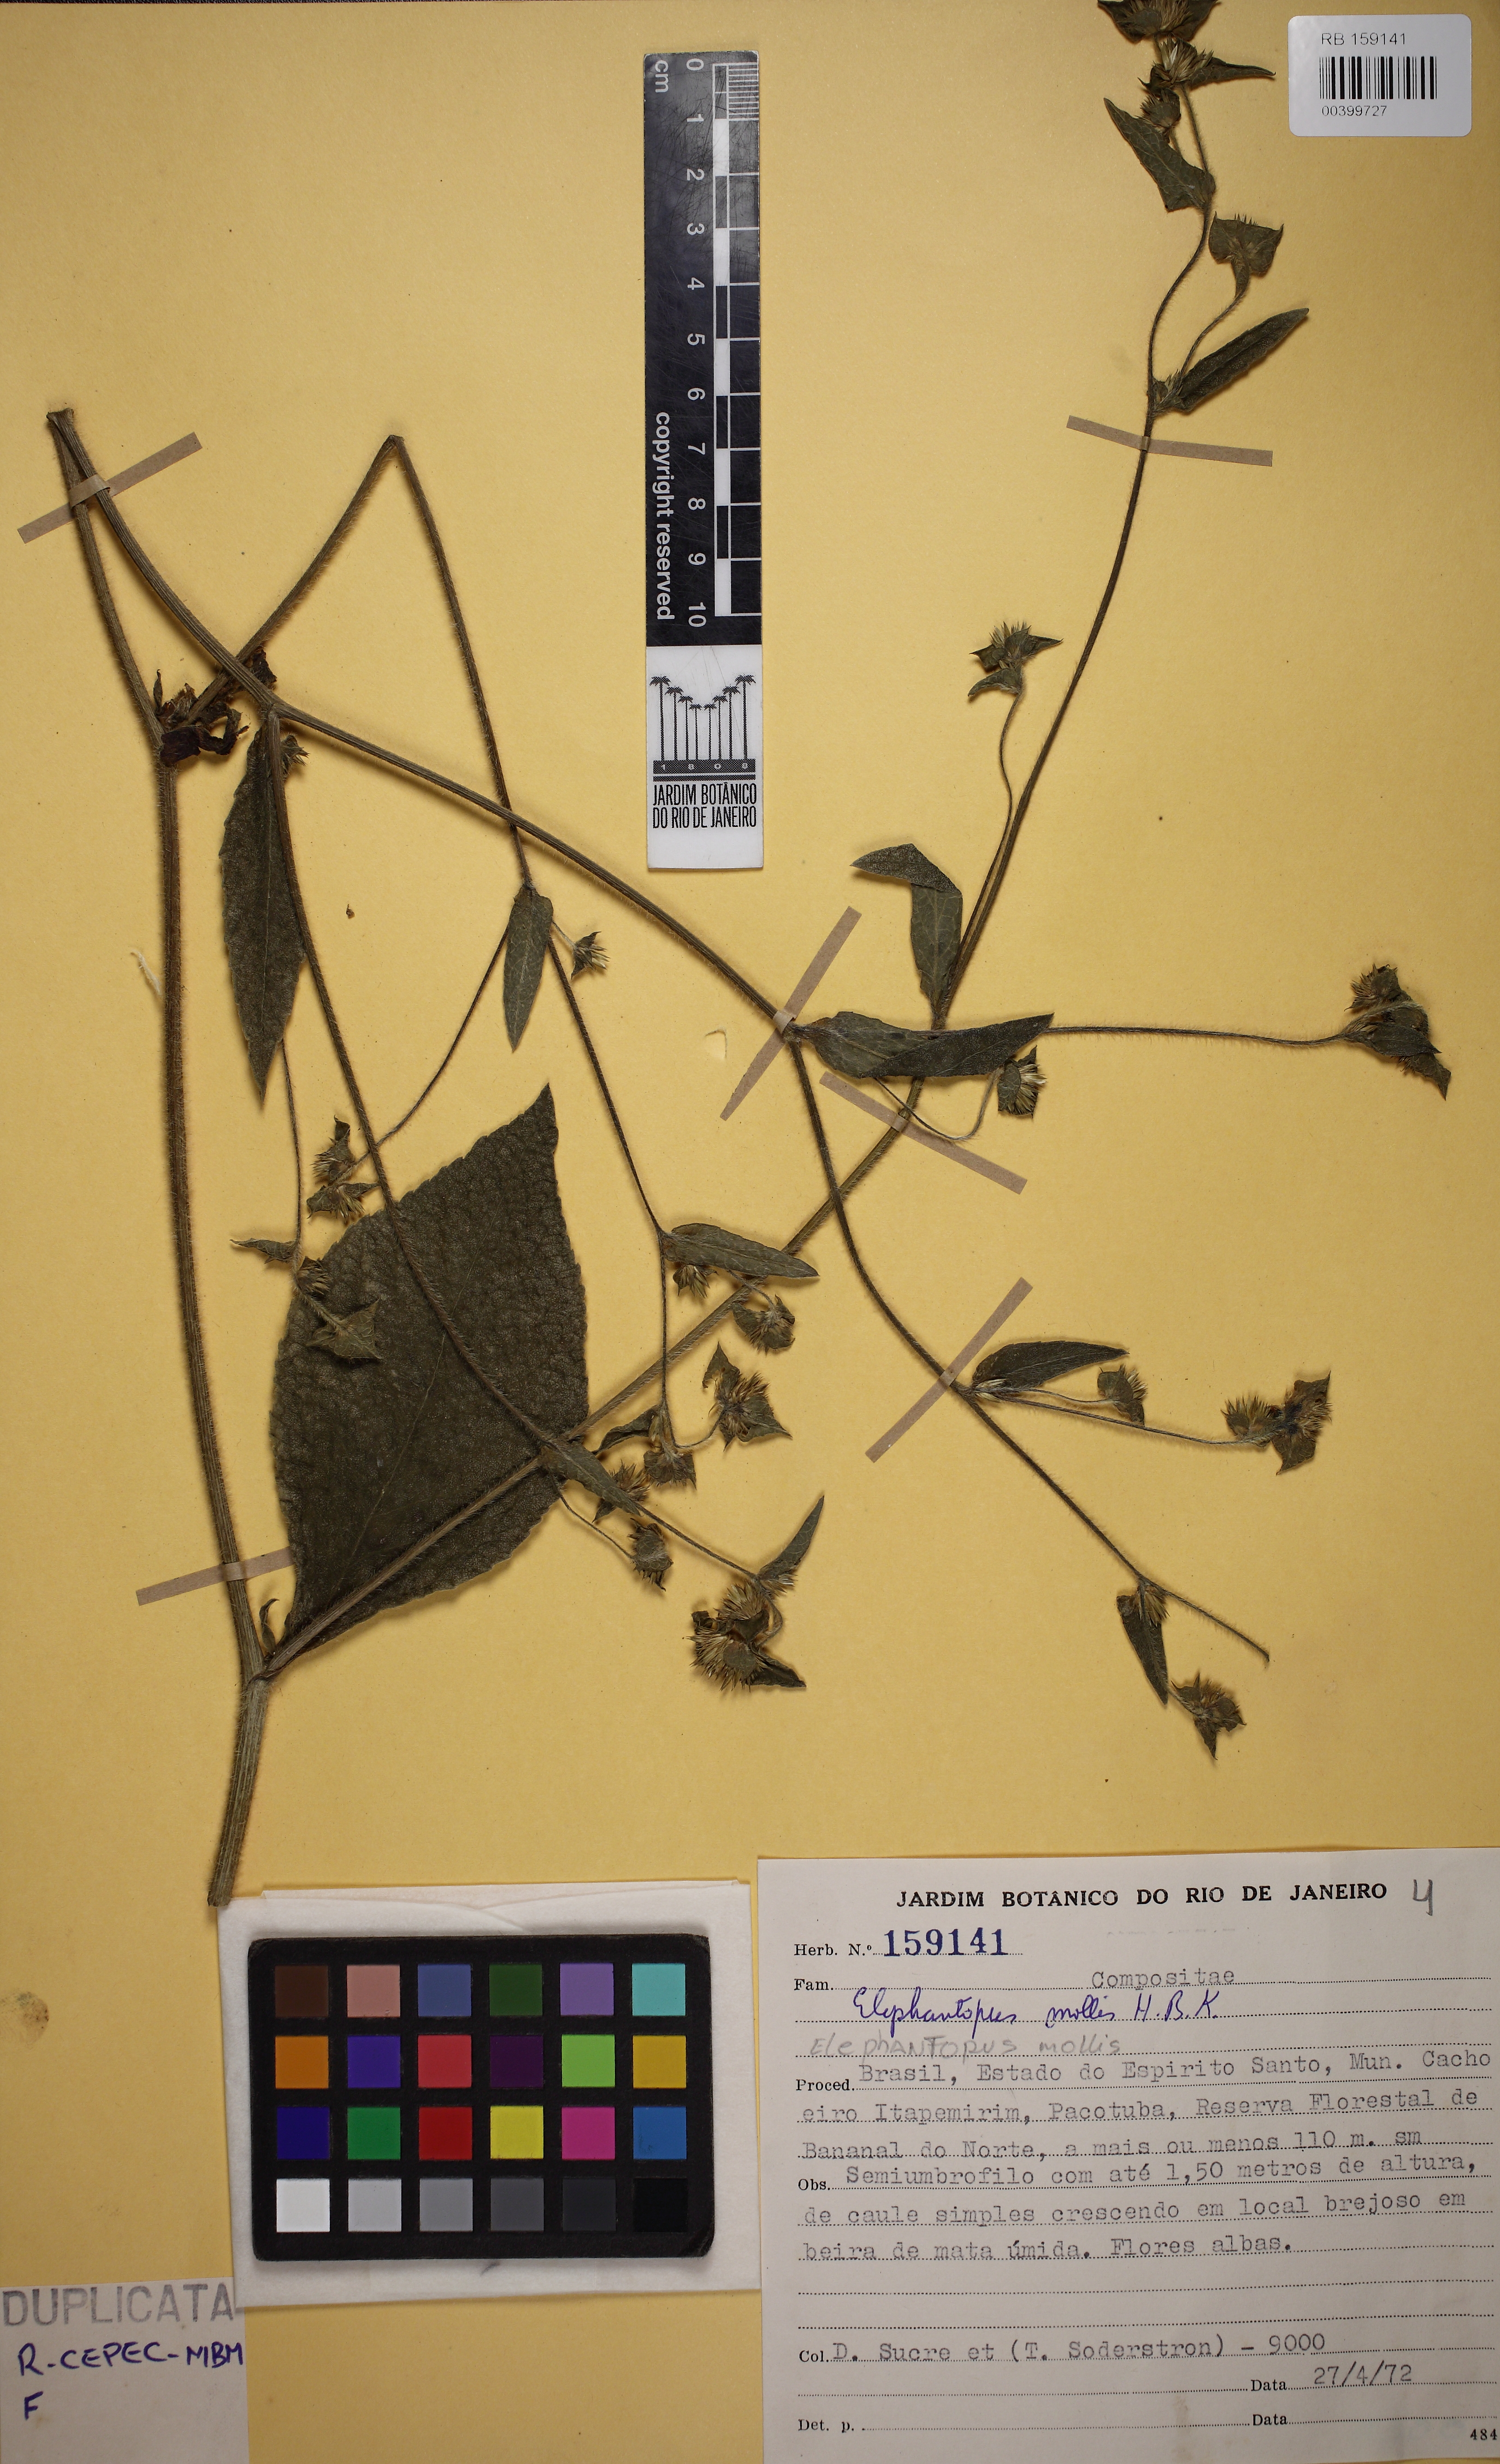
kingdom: Plantae
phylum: Tracheophyta
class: Magnoliopsida
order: Asterales
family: Asteraceae
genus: Elephantopus
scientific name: Elephantopus mollis
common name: Soft elephantsfoot
